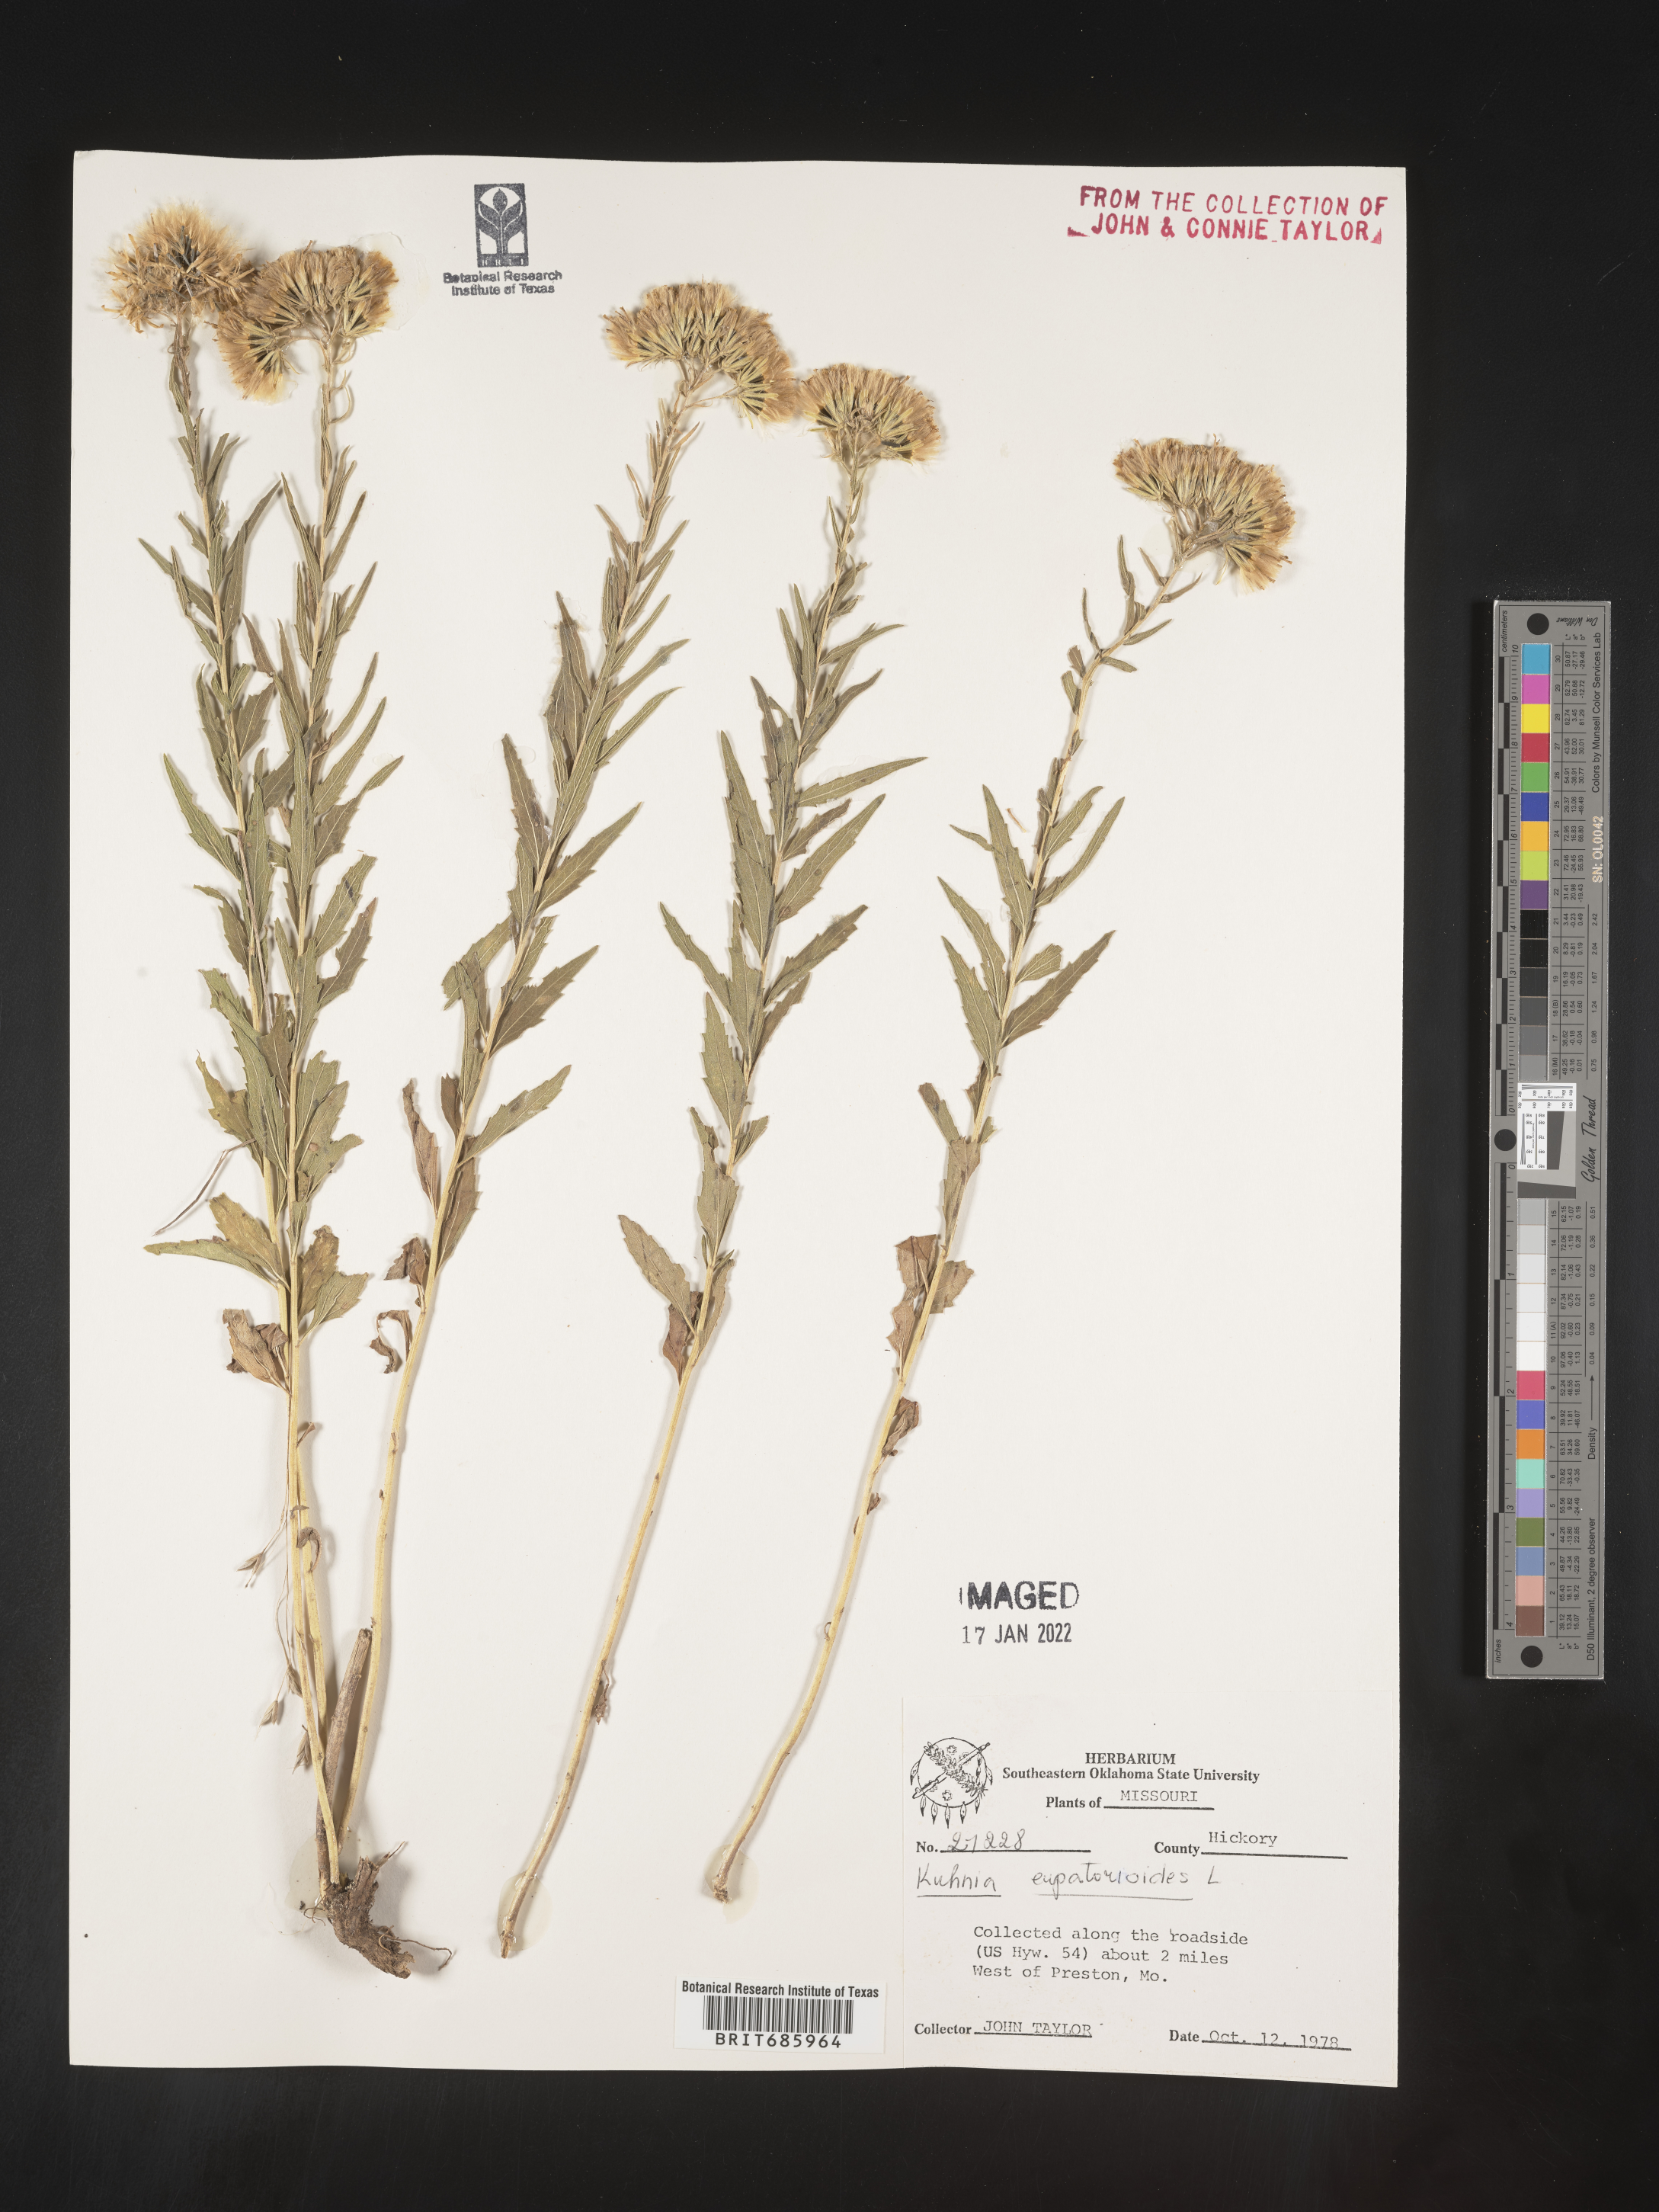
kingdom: Plantae
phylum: Tracheophyta
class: Magnoliopsida
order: Asterales
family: Asteraceae
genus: Brickellia
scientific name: Brickellia eupatorioides
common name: False boneset
